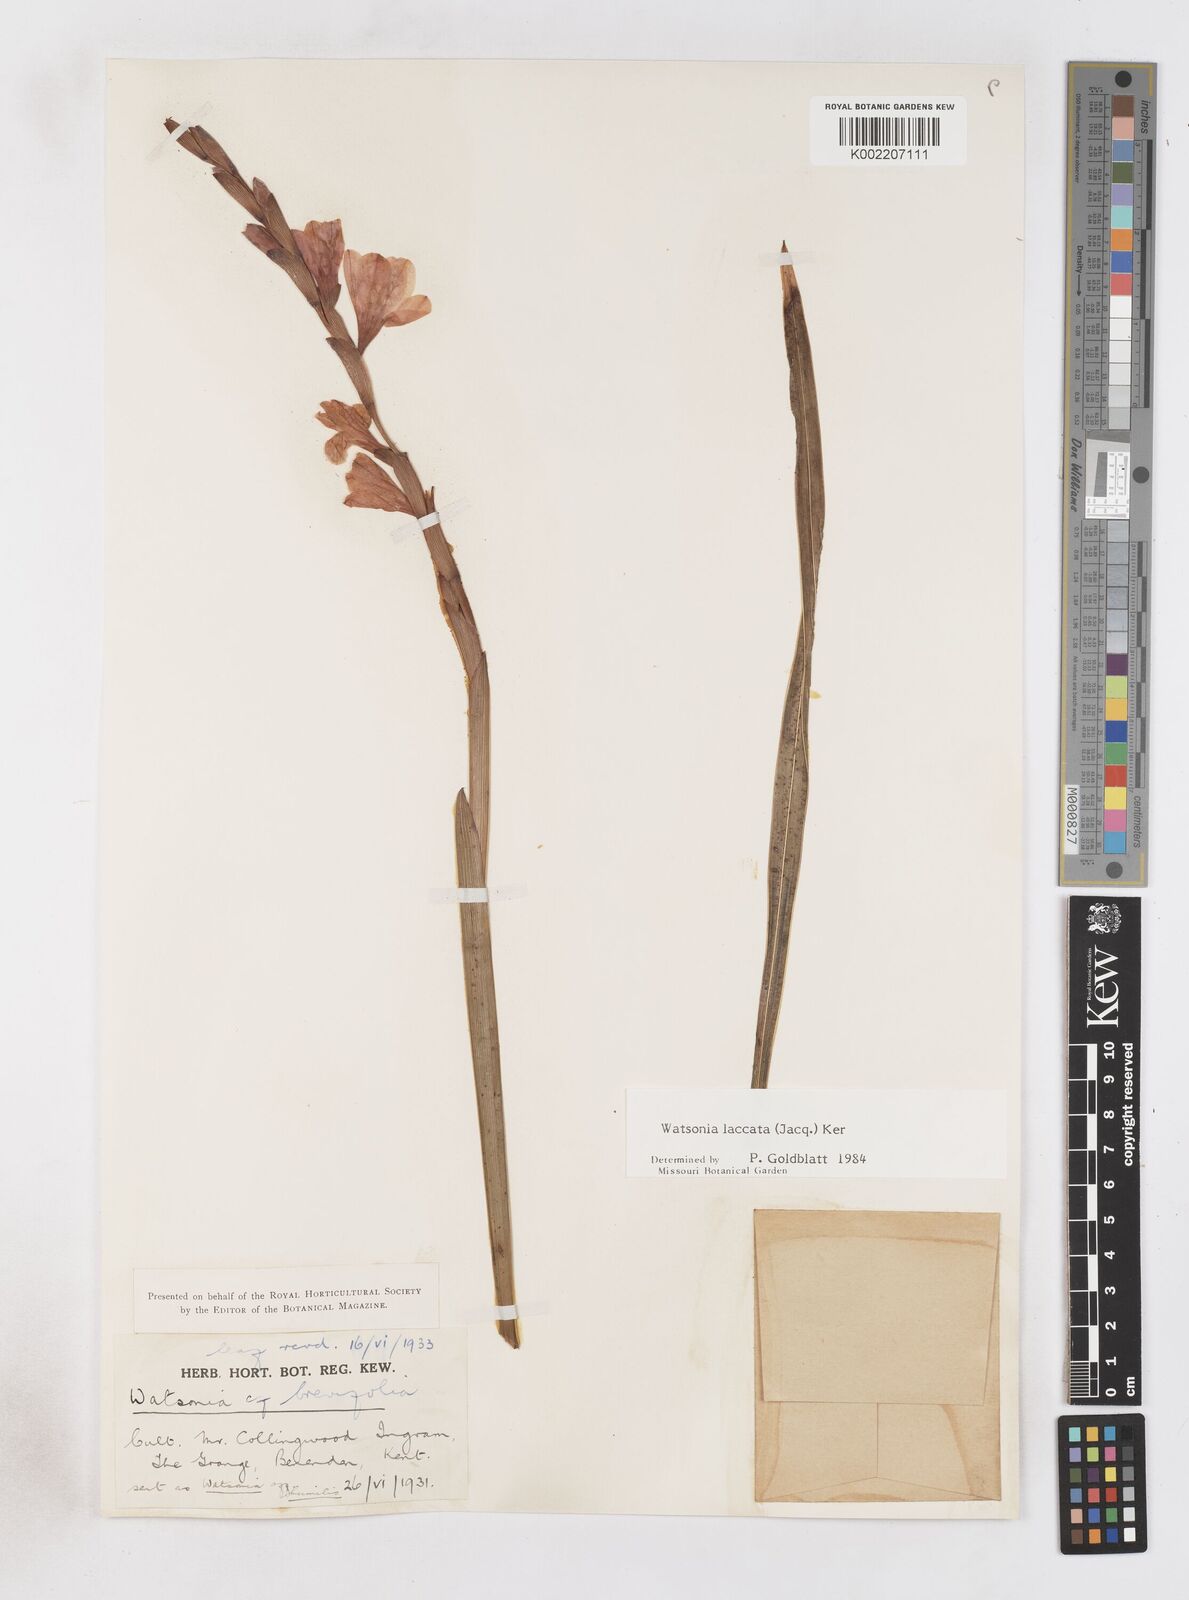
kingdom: Plantae
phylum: Tracheophyta
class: Liliopsida
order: Asparagales
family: Iridaceae
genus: Watsonia
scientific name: Watsonia laccata
